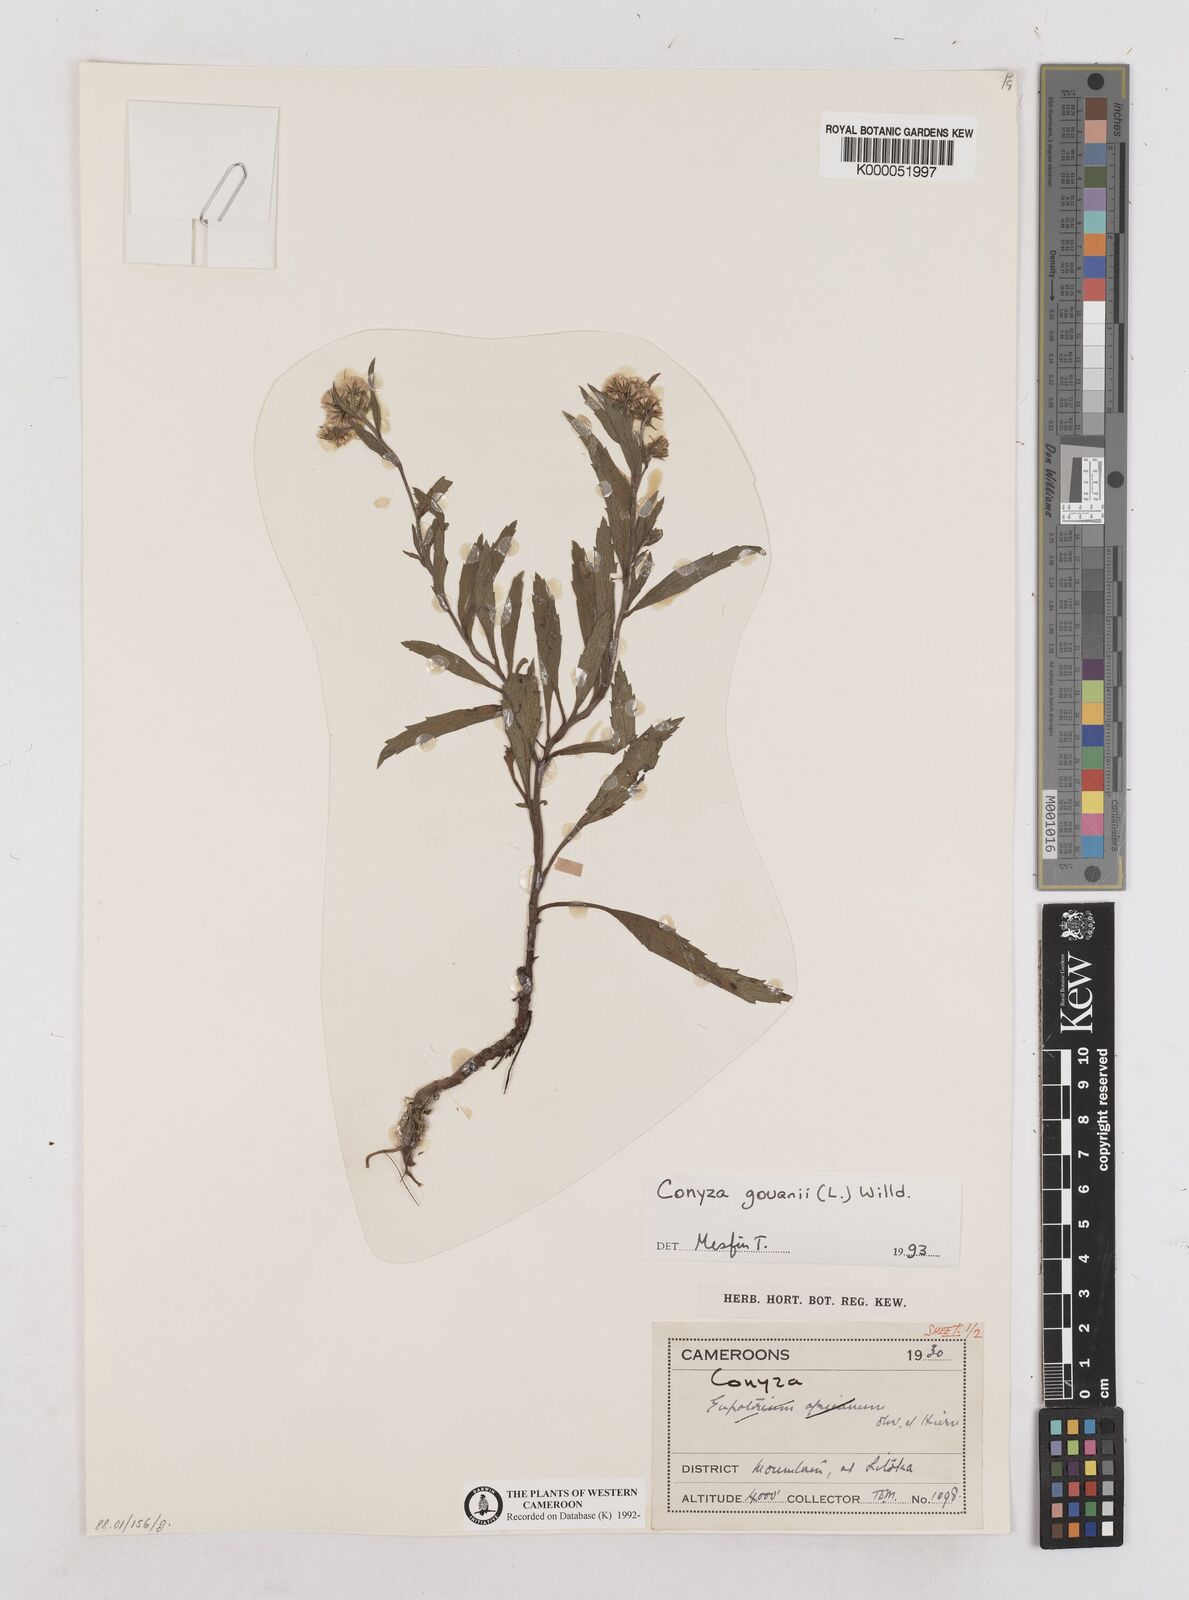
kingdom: Plantae
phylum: Tracheophyta
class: Magnoliopsida
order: Asterales
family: Asteraceae
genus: Eschenbachia
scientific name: Eschenbachia gouanii
